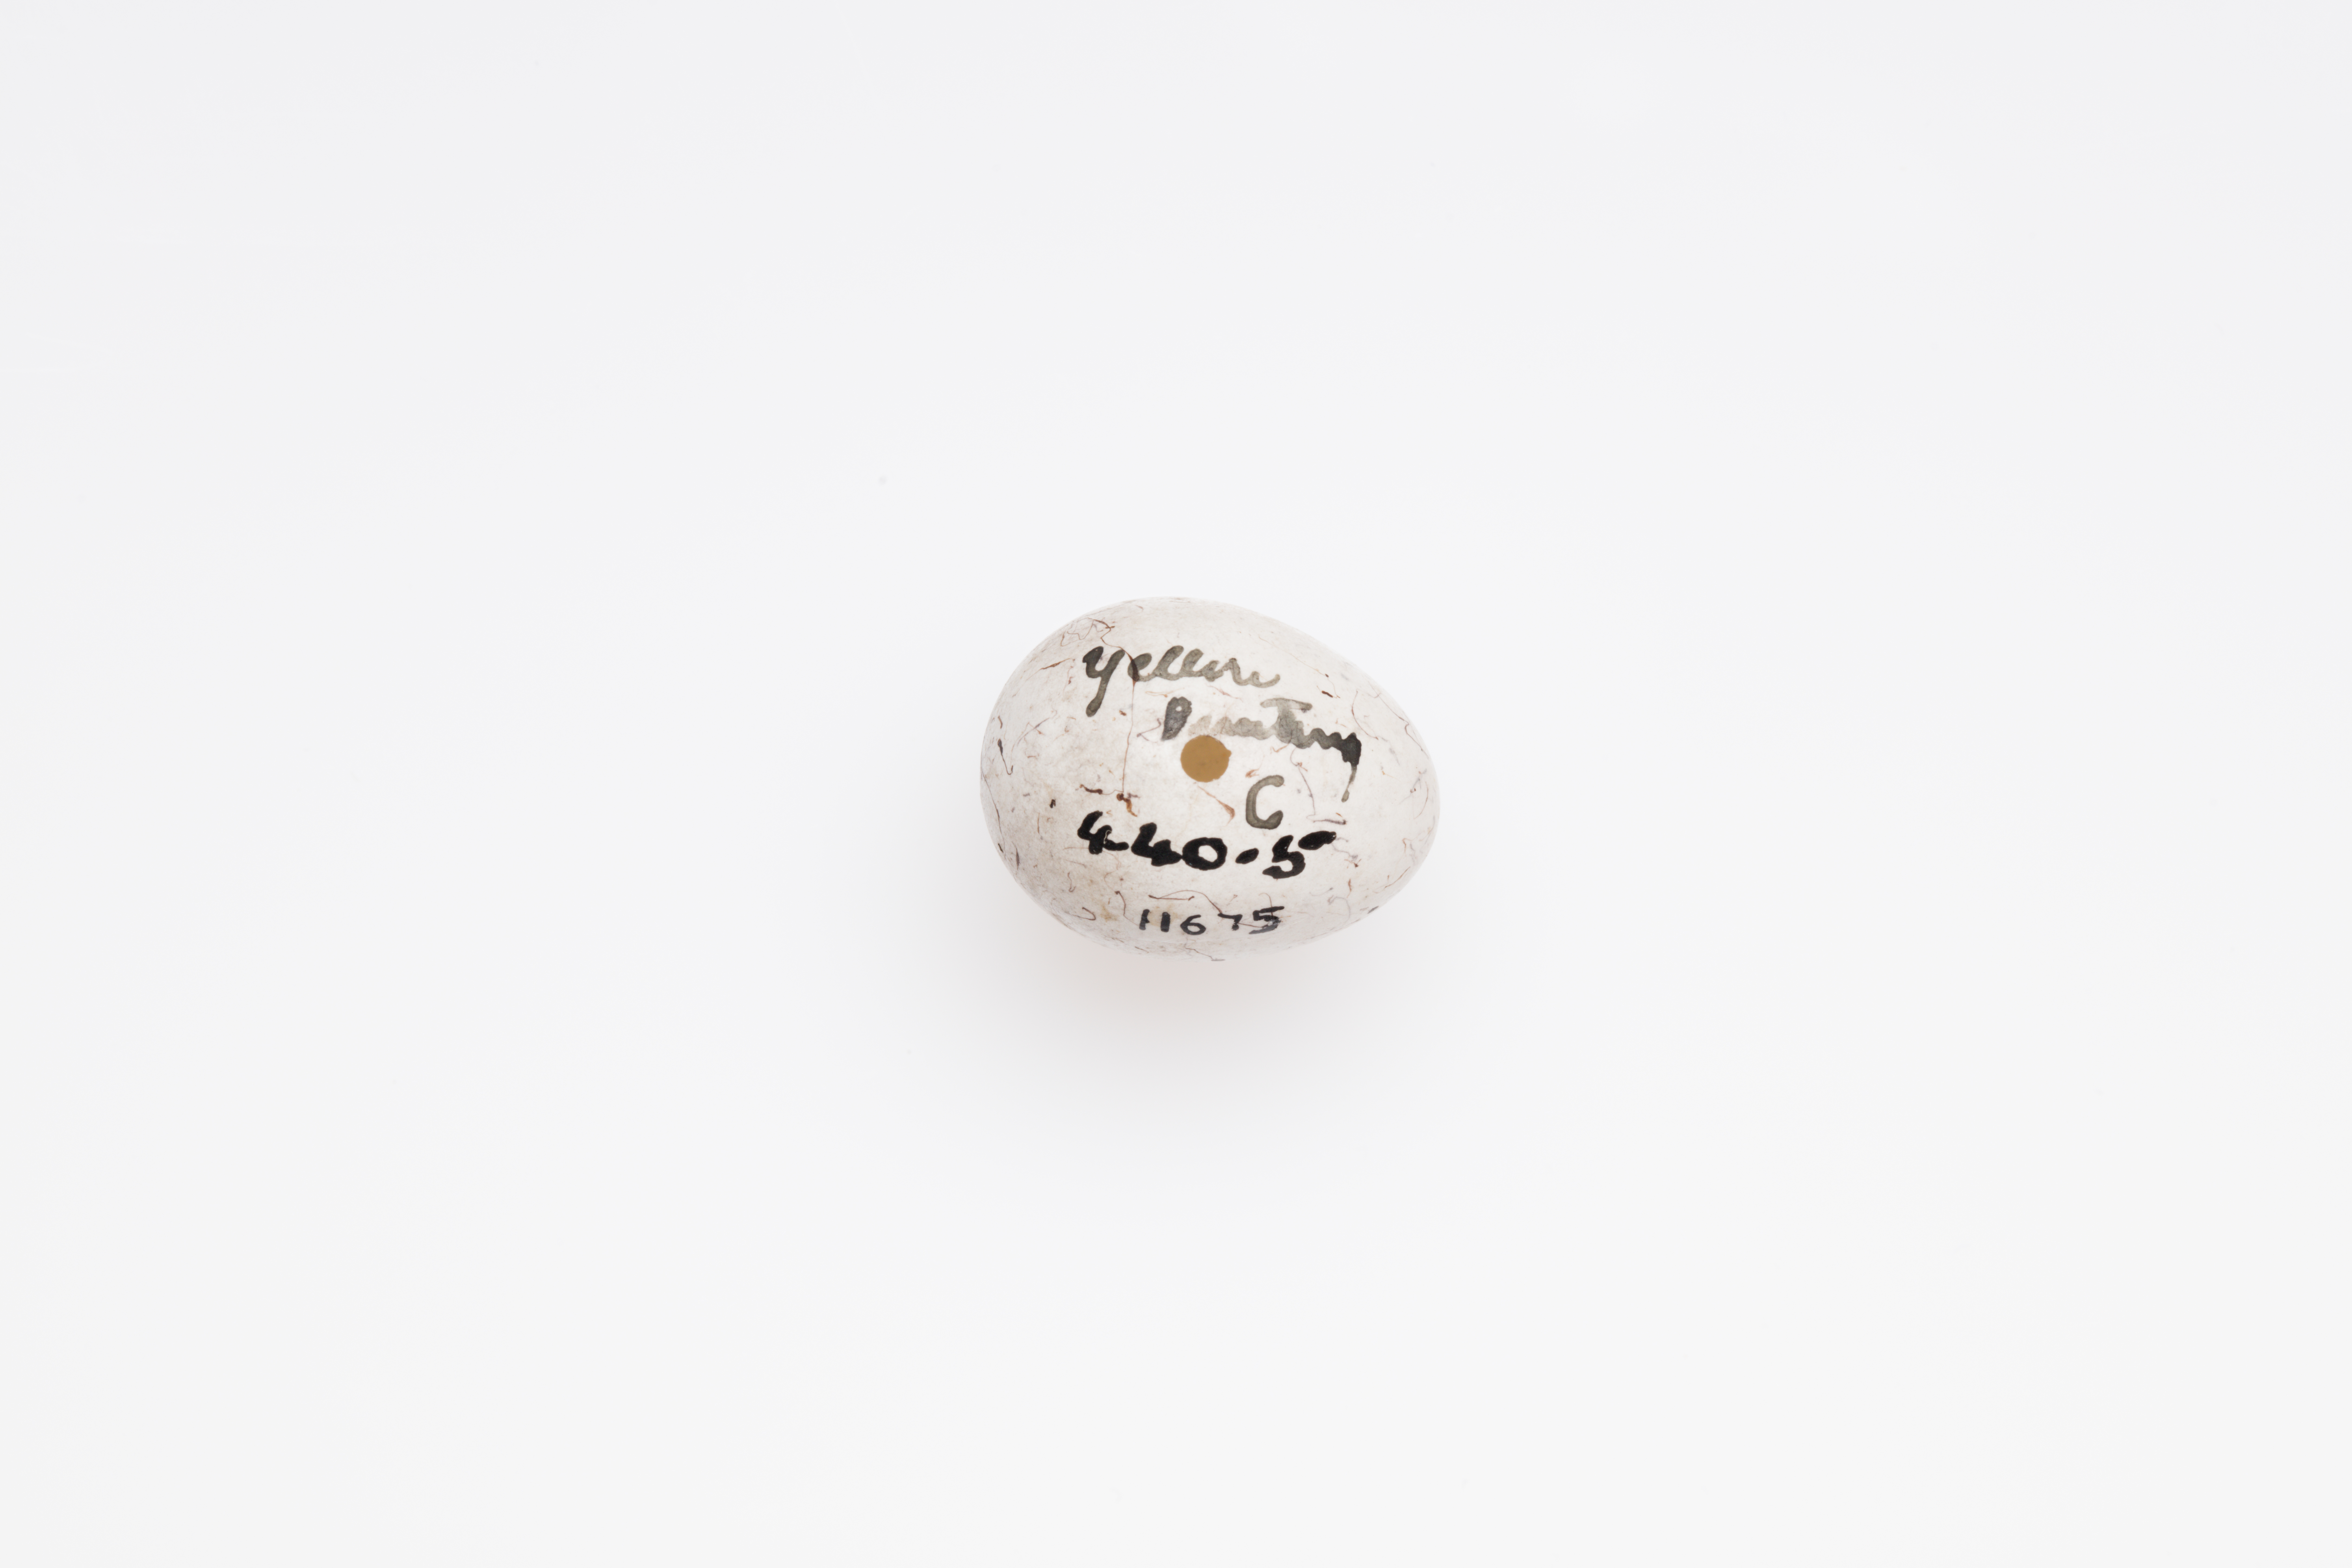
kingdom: Animalia
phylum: Chordata
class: Aves
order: Passeriformes
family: Emberizidae
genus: Emberiza
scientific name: Emberiza citrinella
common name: Yellowhammer
